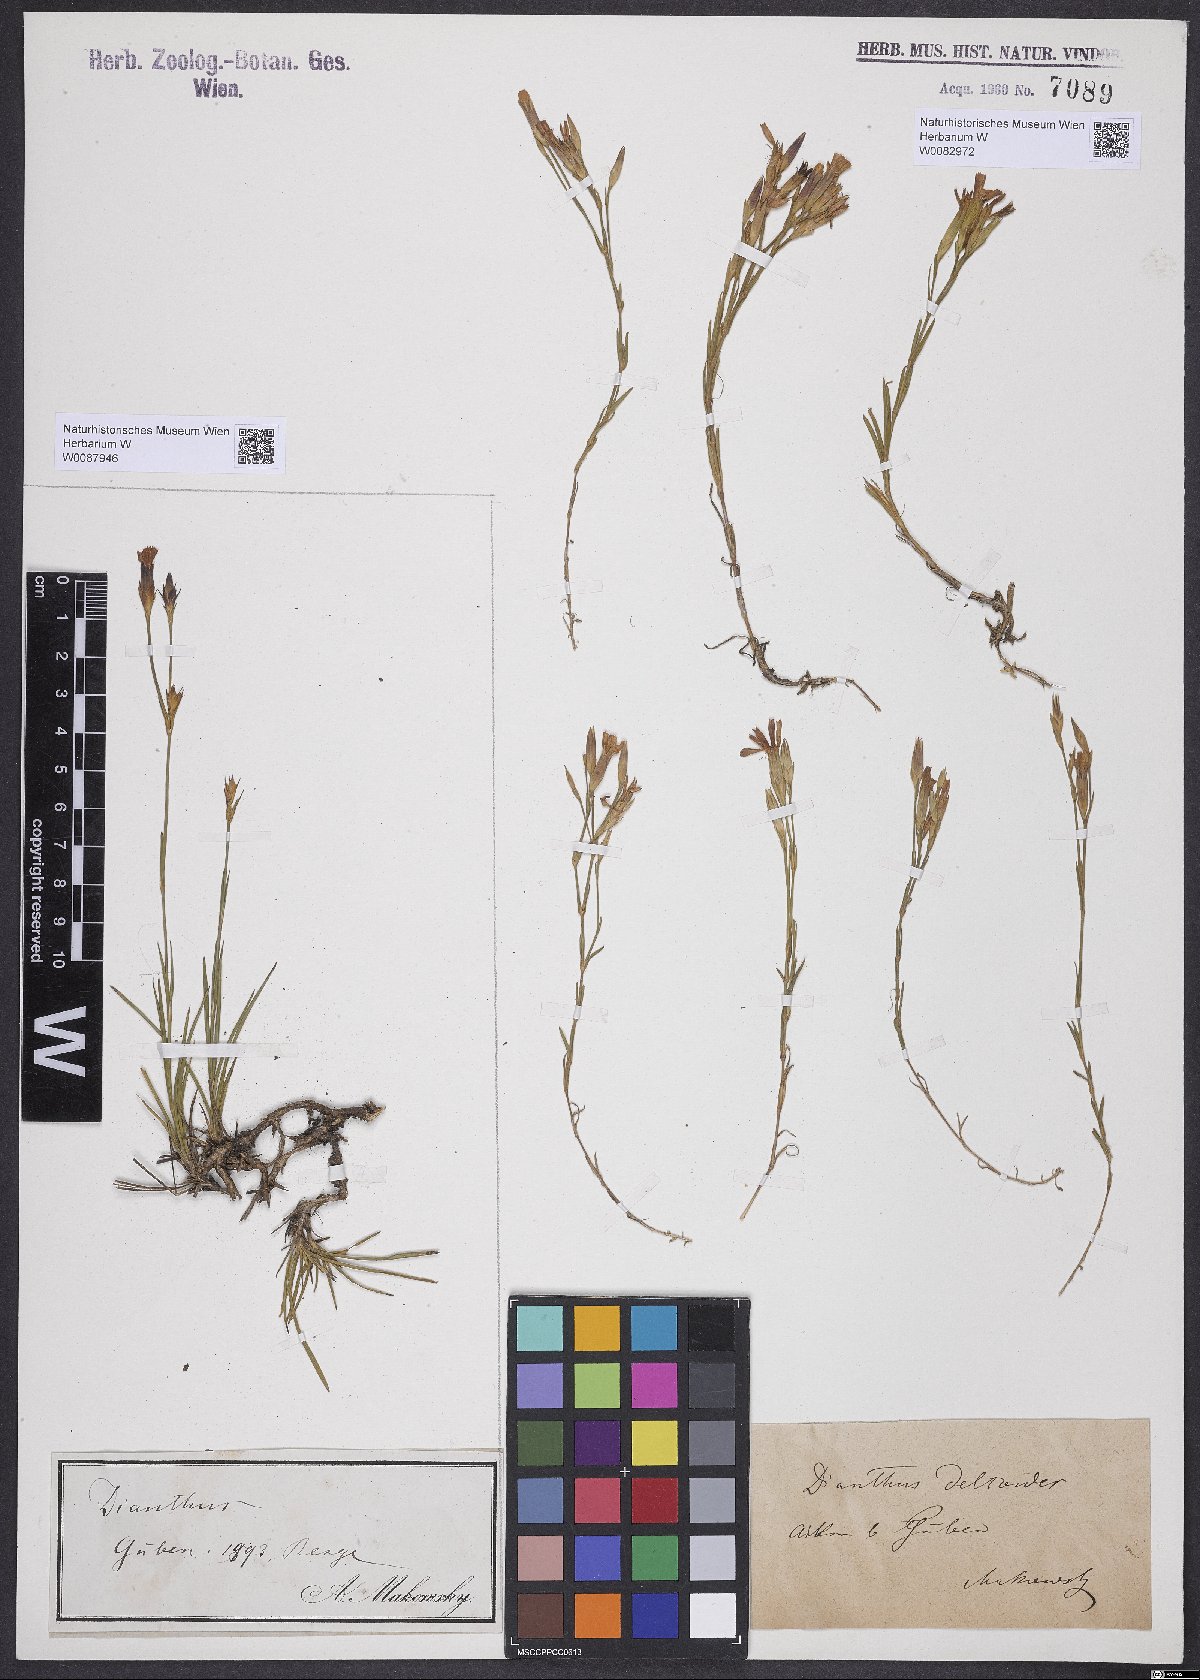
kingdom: Plantae
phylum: Tracheophyta
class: Magnoliopsida
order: Caryophyllales
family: Caryophyllaceae
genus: Dianthus
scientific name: Dianthus deltoides
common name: Maiden pink
